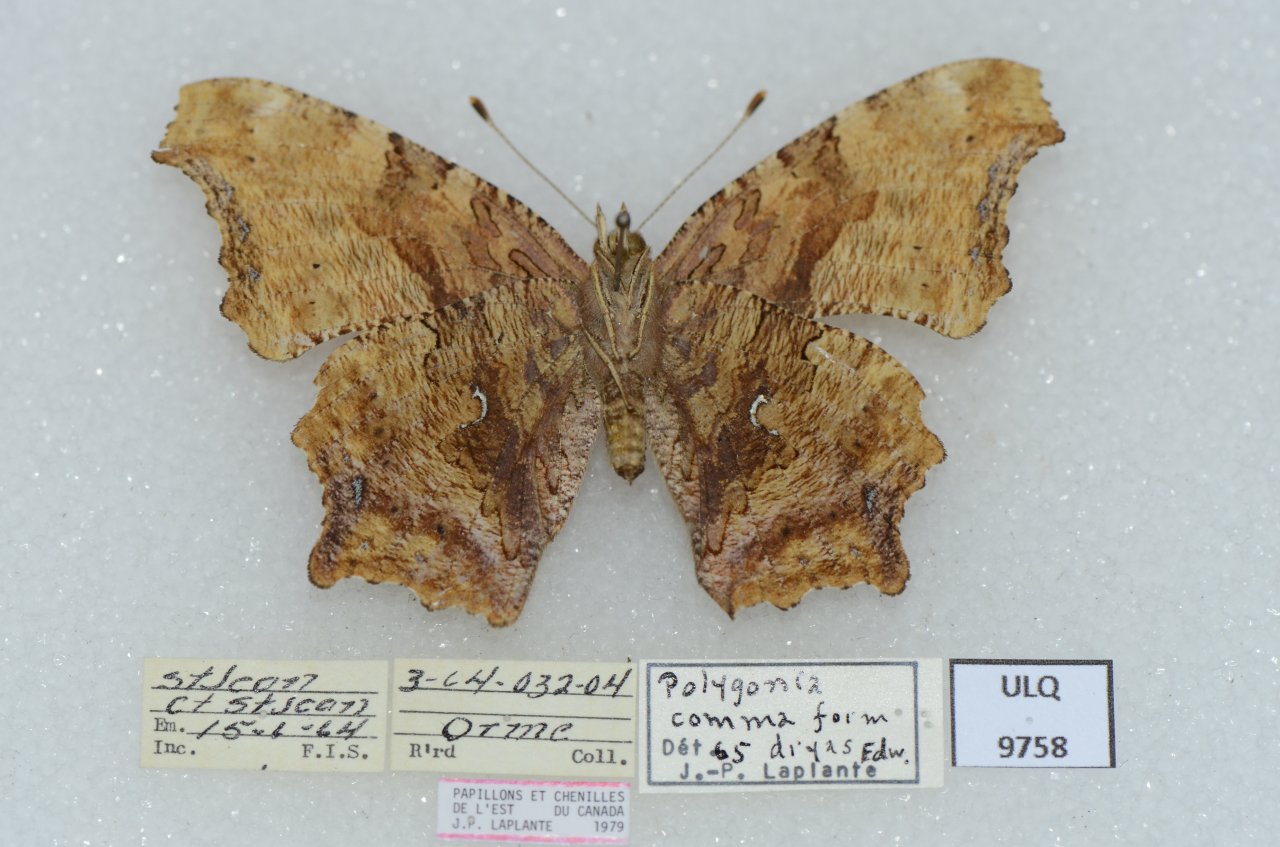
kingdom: Animalia
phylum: Arthropoda
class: Insecta
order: Lepidoptera
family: Nymphalidae
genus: Polygonia
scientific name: Polygonia comma
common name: Eastern Comma
